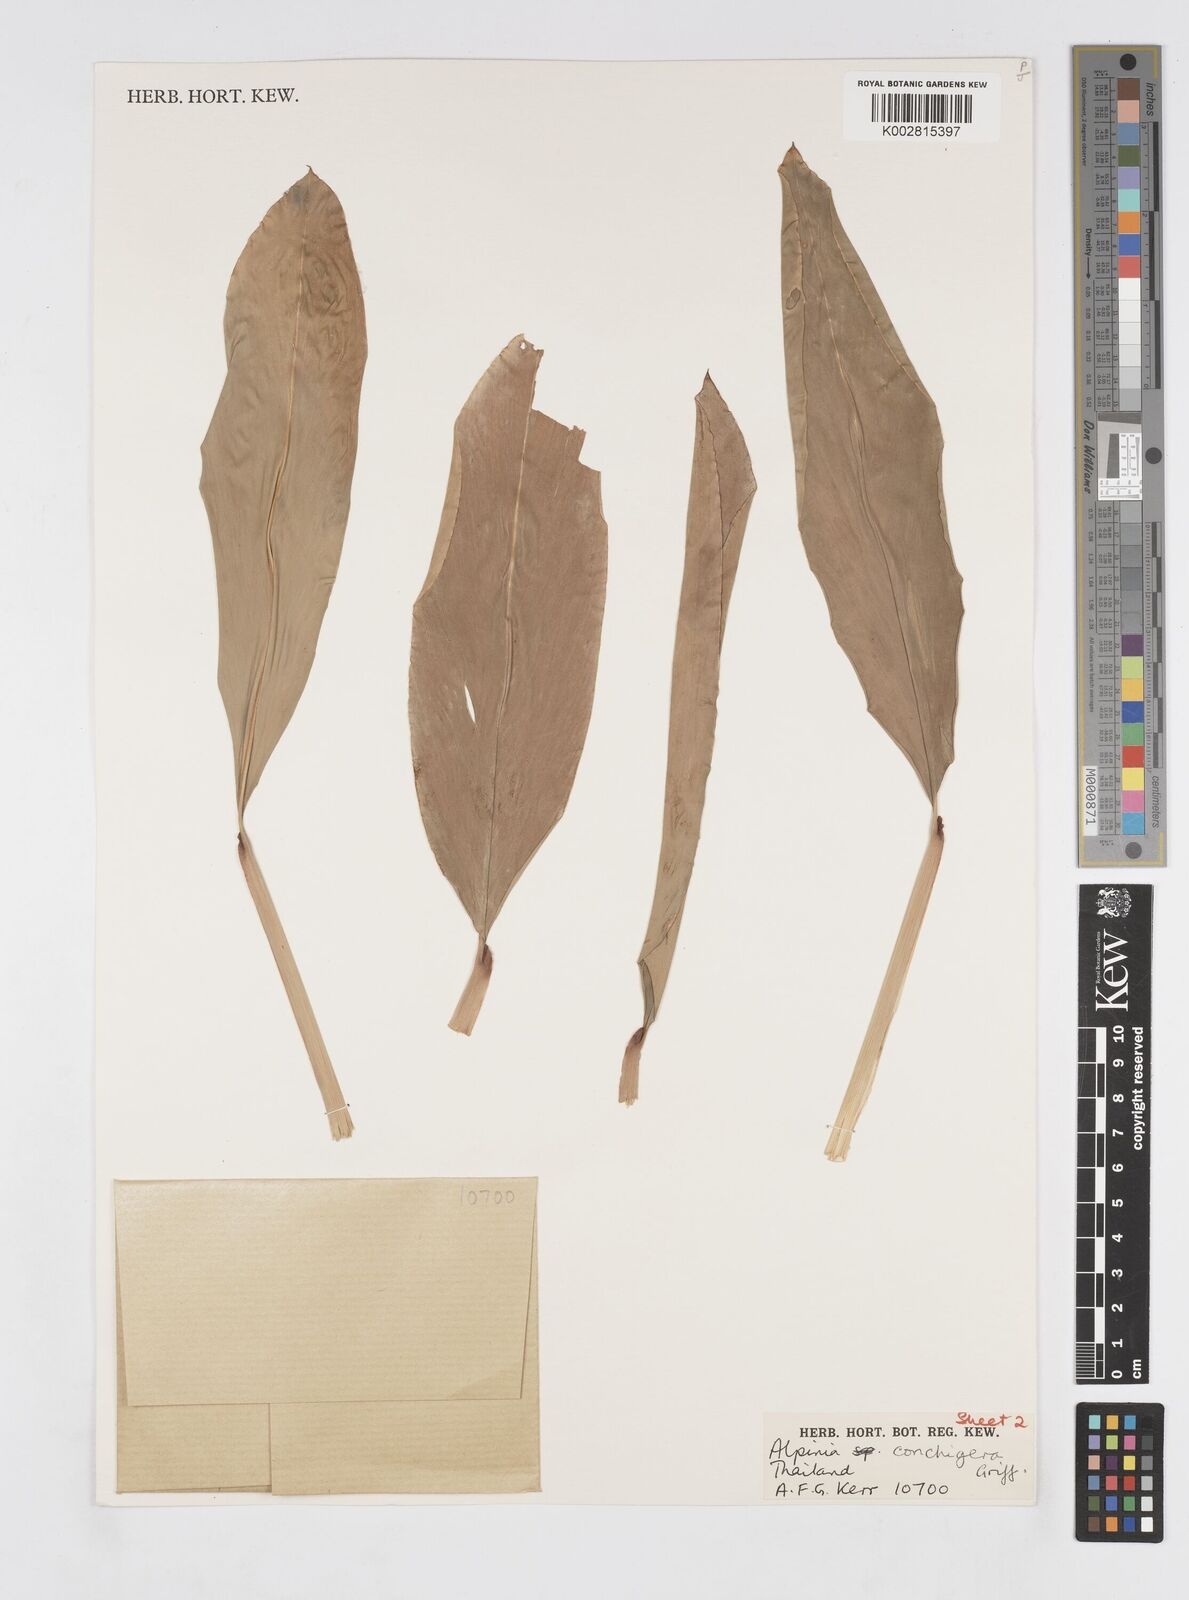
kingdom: Plantae
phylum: Tracheophyta
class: Liliopsida
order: Zingiberales
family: Zingiberaceae
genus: Alpinia
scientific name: Alpinia conchigera
